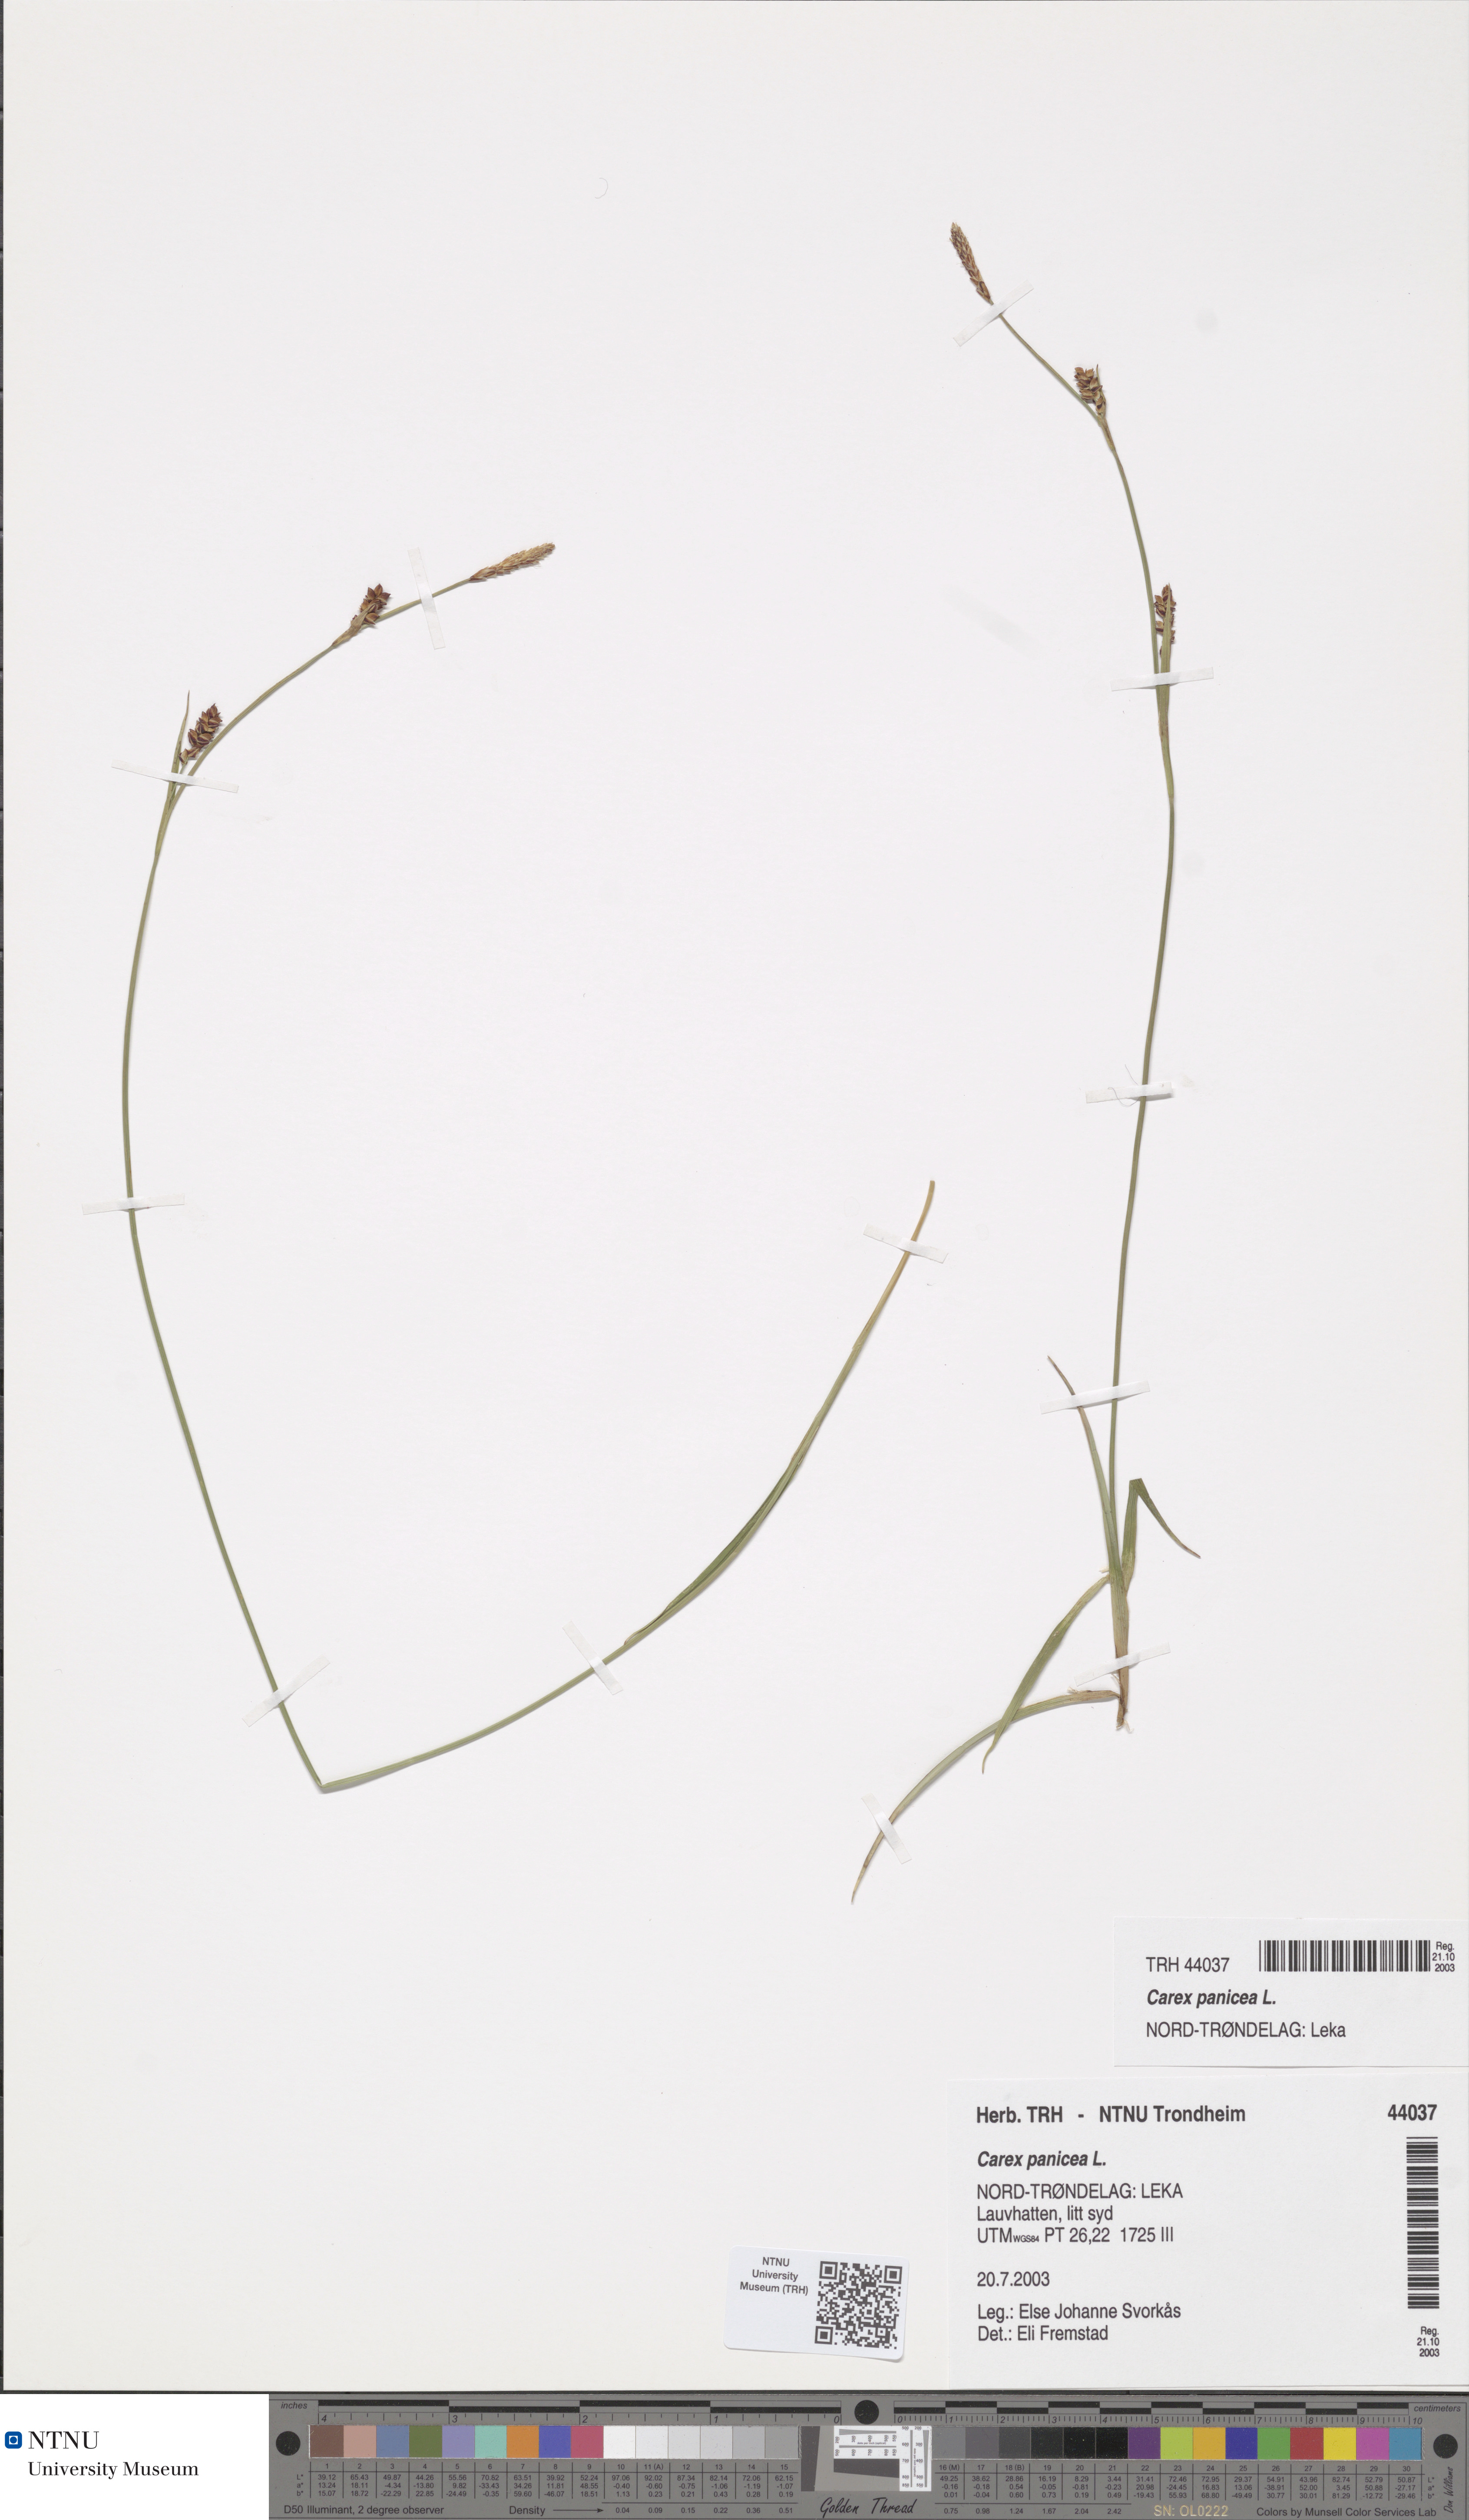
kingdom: Plantae
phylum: Tracheophyta
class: Liliopsida
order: Poales
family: Cyperaceae
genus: Carex
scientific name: Carex panicea
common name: Carnation sedge
